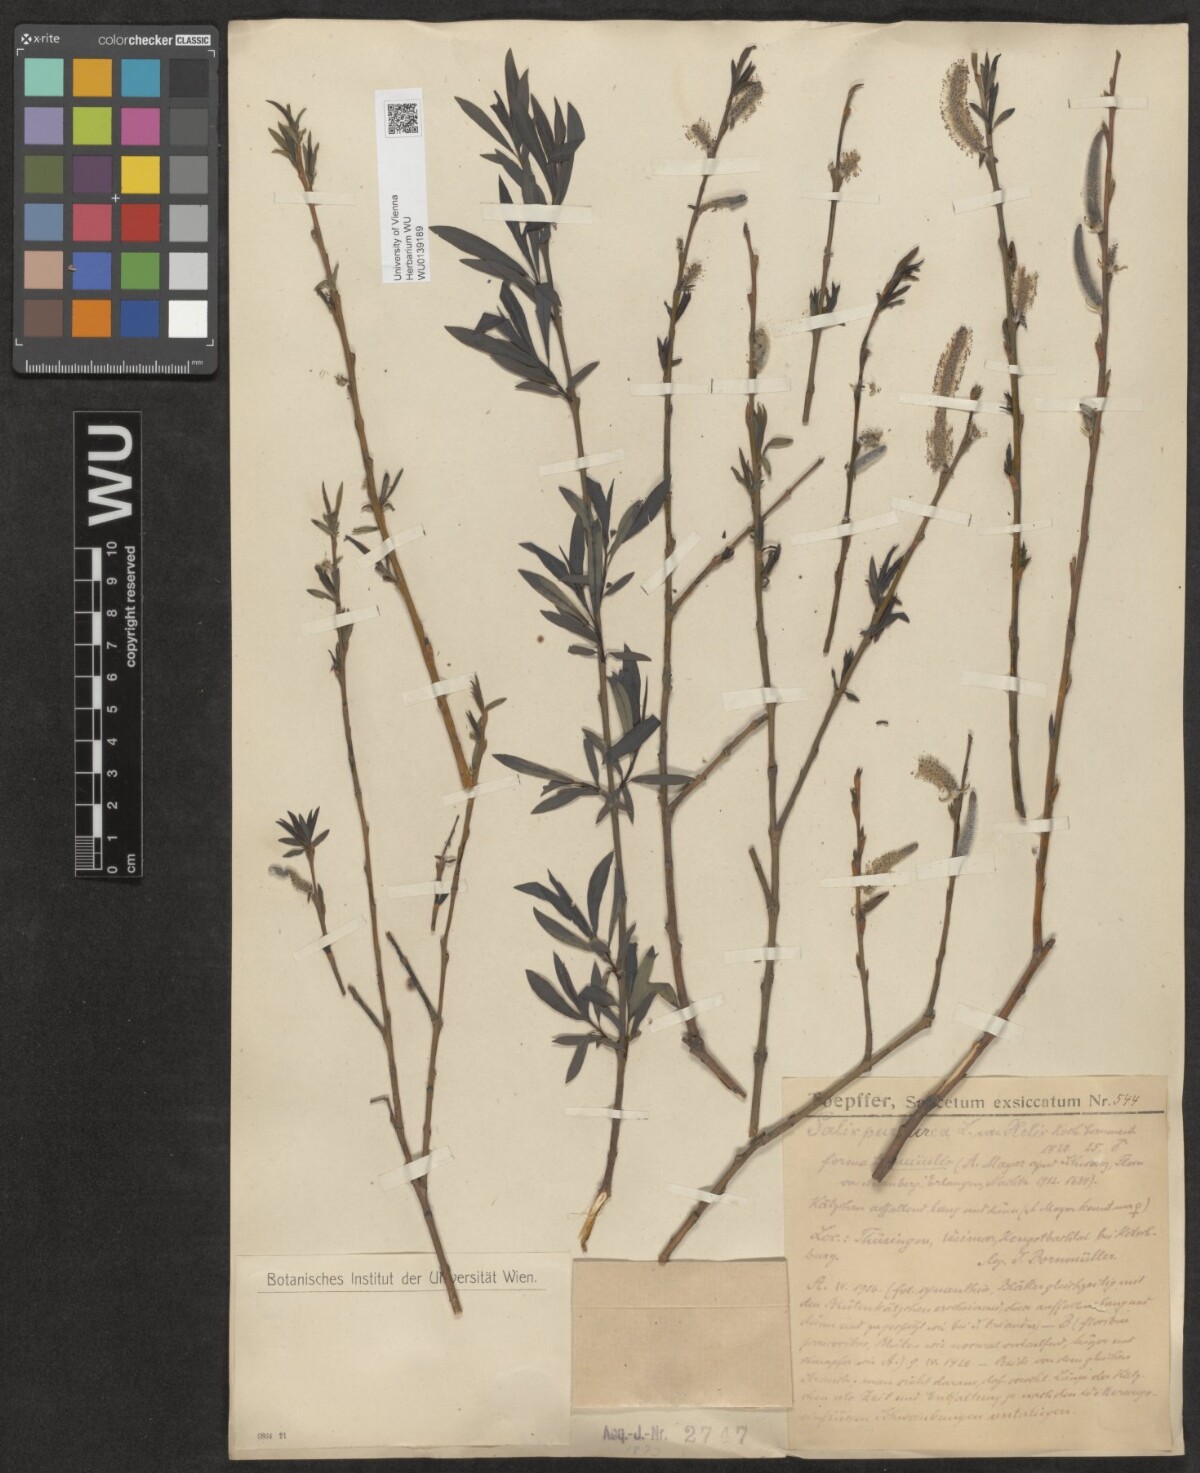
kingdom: Plantae
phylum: Tracheophyta
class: Magnoliopsida
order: Malpighiales
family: Salicaceae
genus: Salix
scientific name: Salix purpurea
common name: Purple willow
